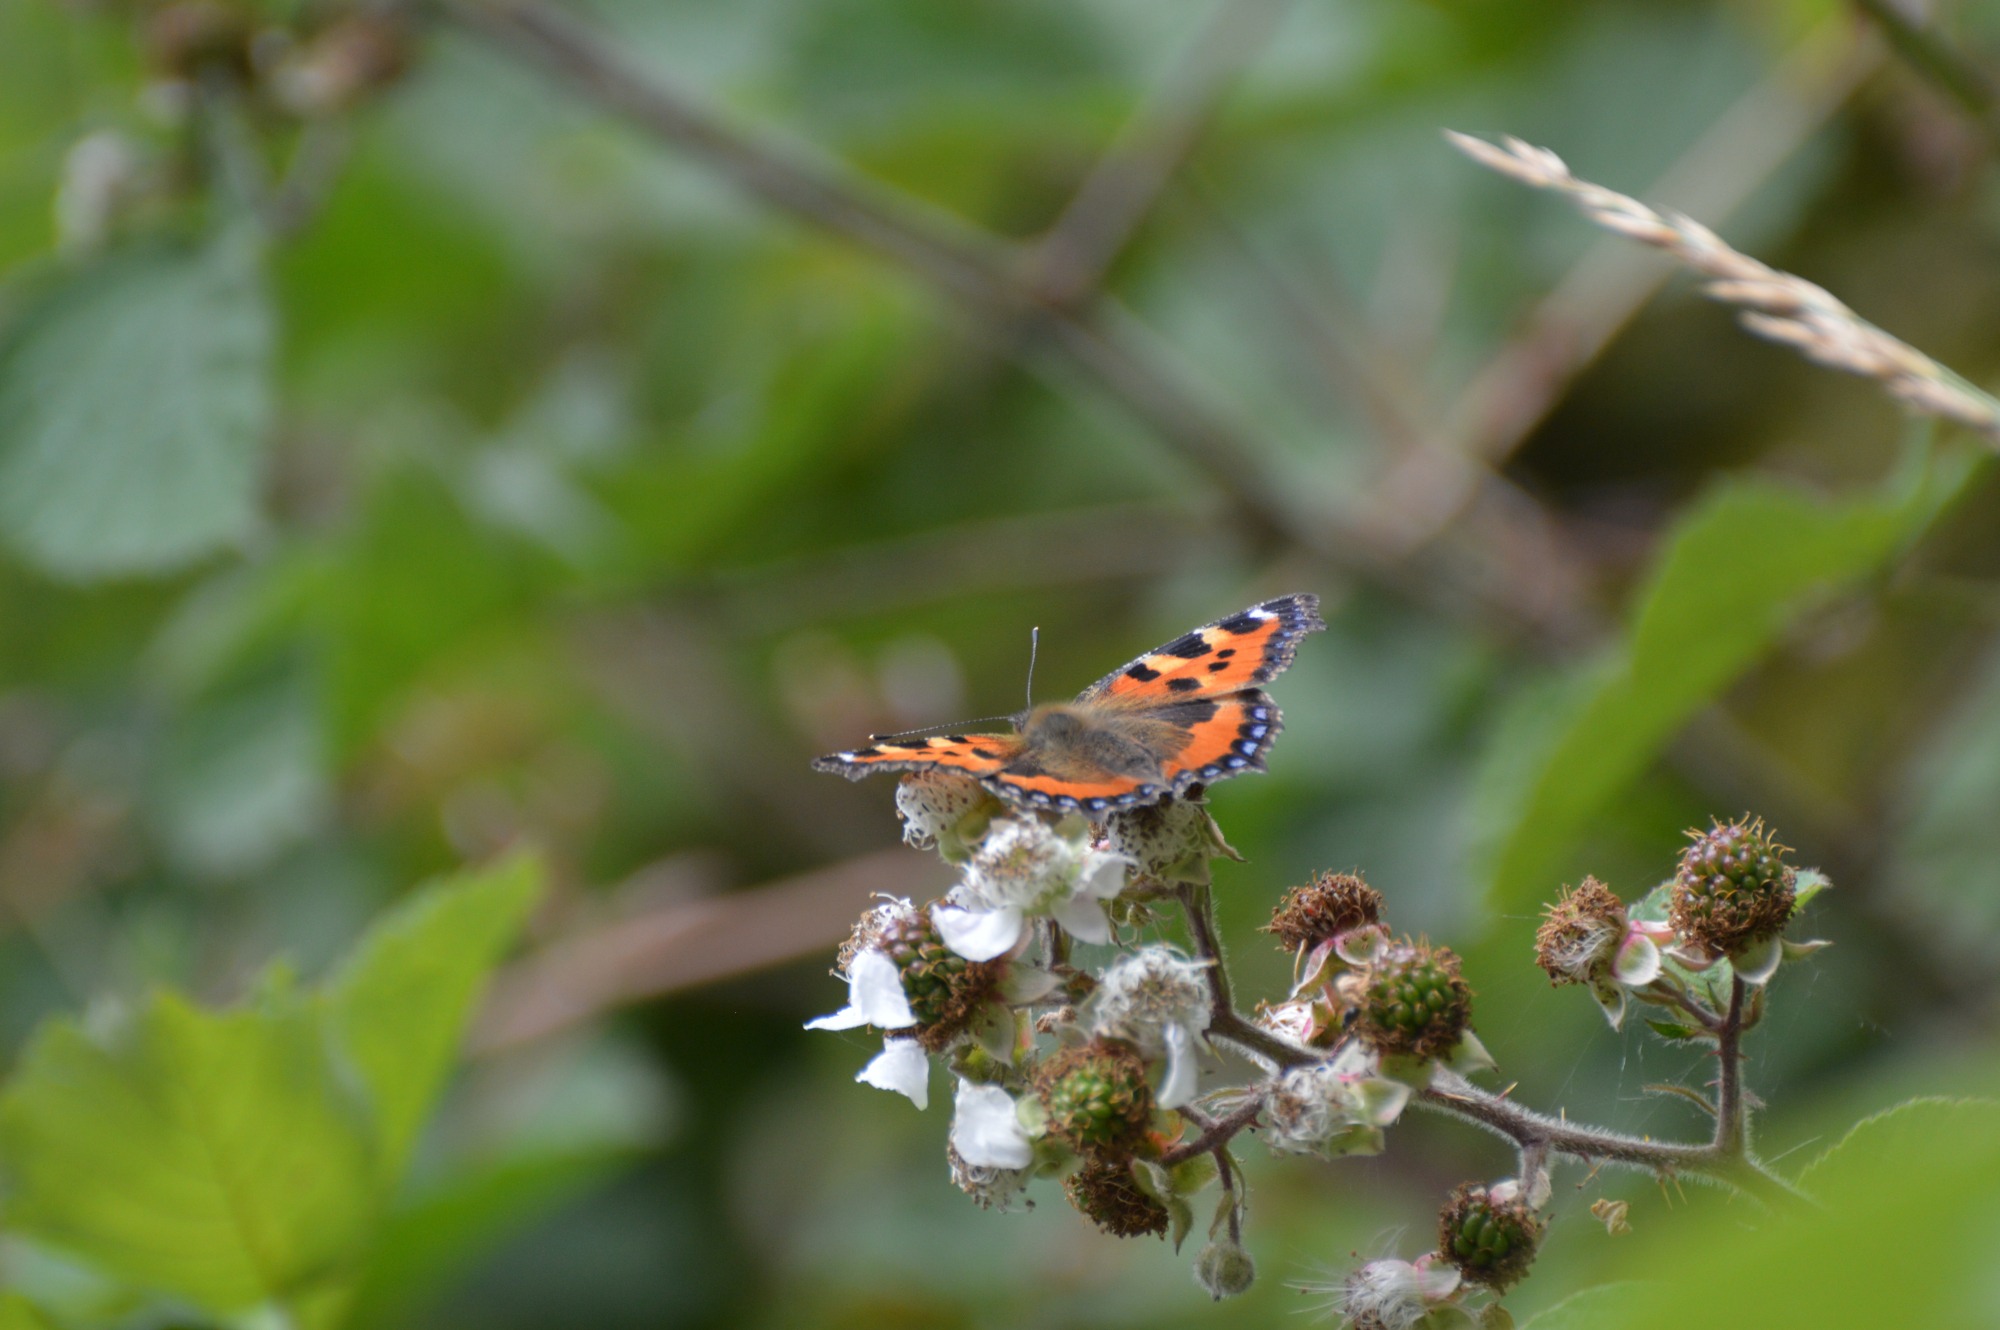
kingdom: Animalia
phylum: Arthropoda
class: Insecta
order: Lepidoptera
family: Nymphalidae
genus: Aglais
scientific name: Aglais urticae
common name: Nældens takvinge
